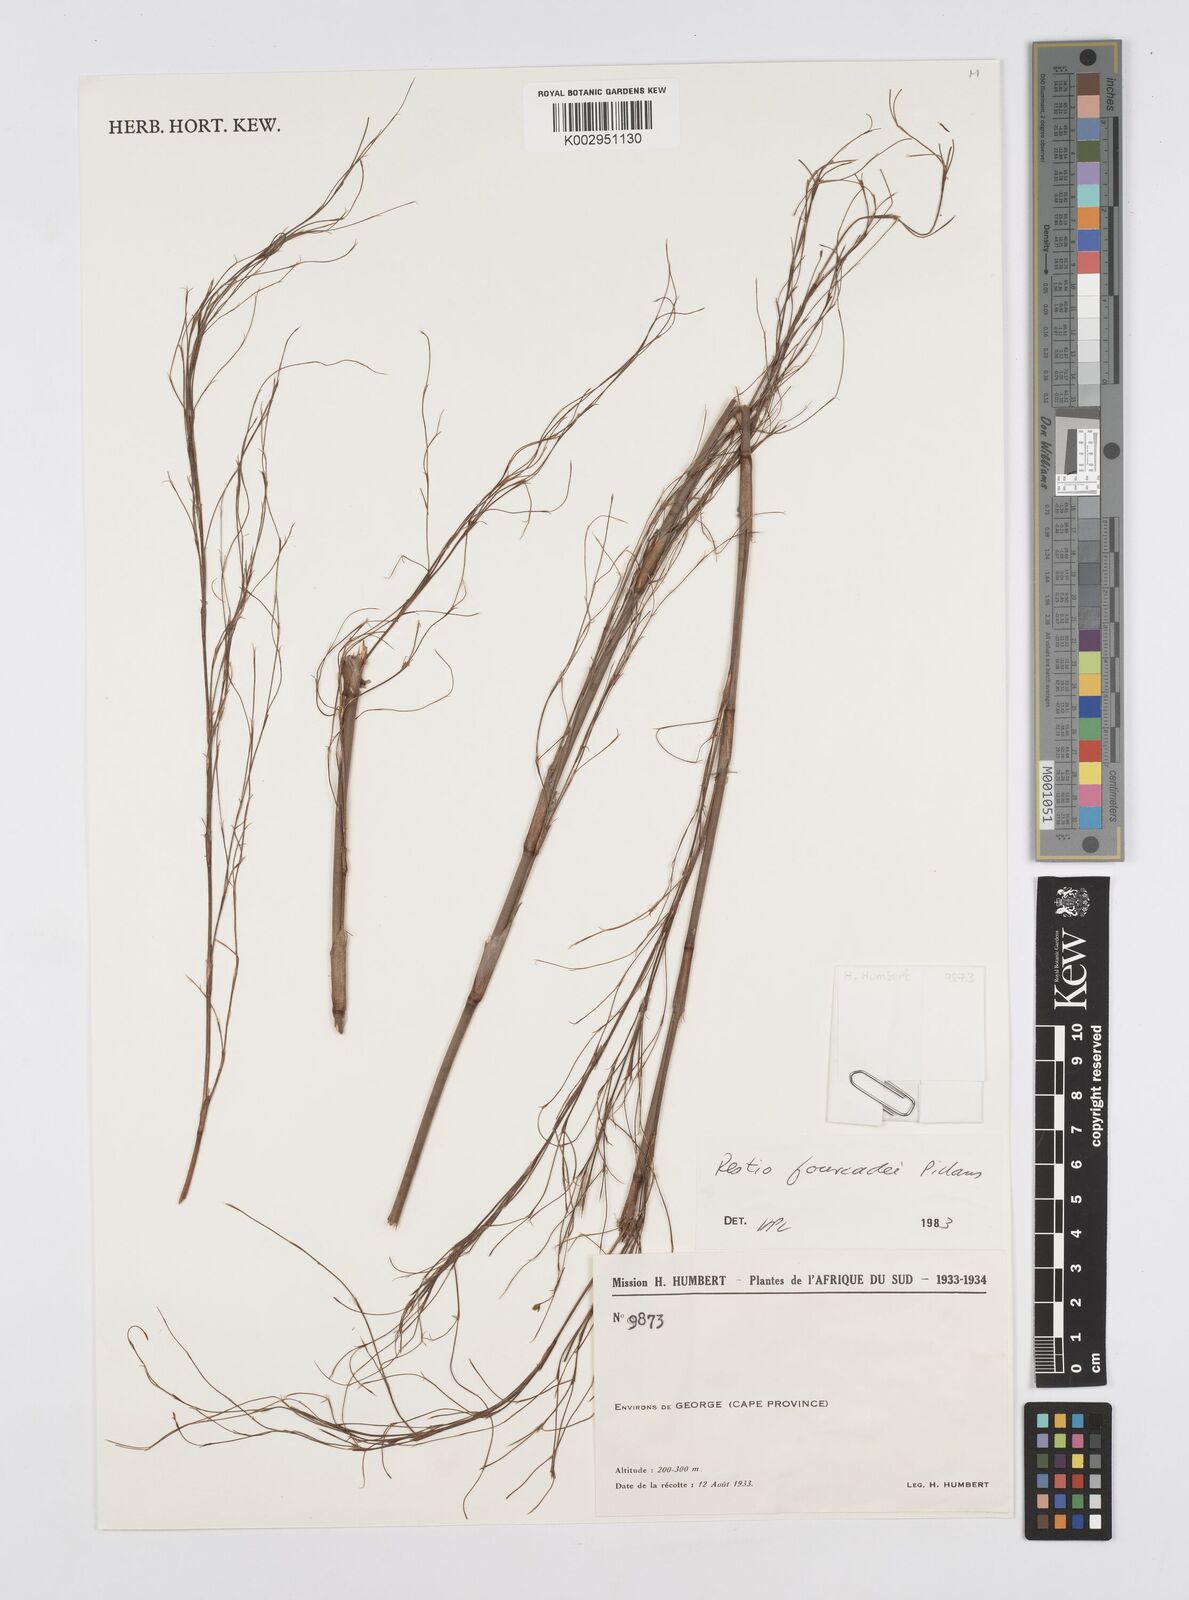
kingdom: Plantae
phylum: Tracheophyta
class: Liliopsida
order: Poales
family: Restionaceae
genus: Restio
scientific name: Restio fourcadei
